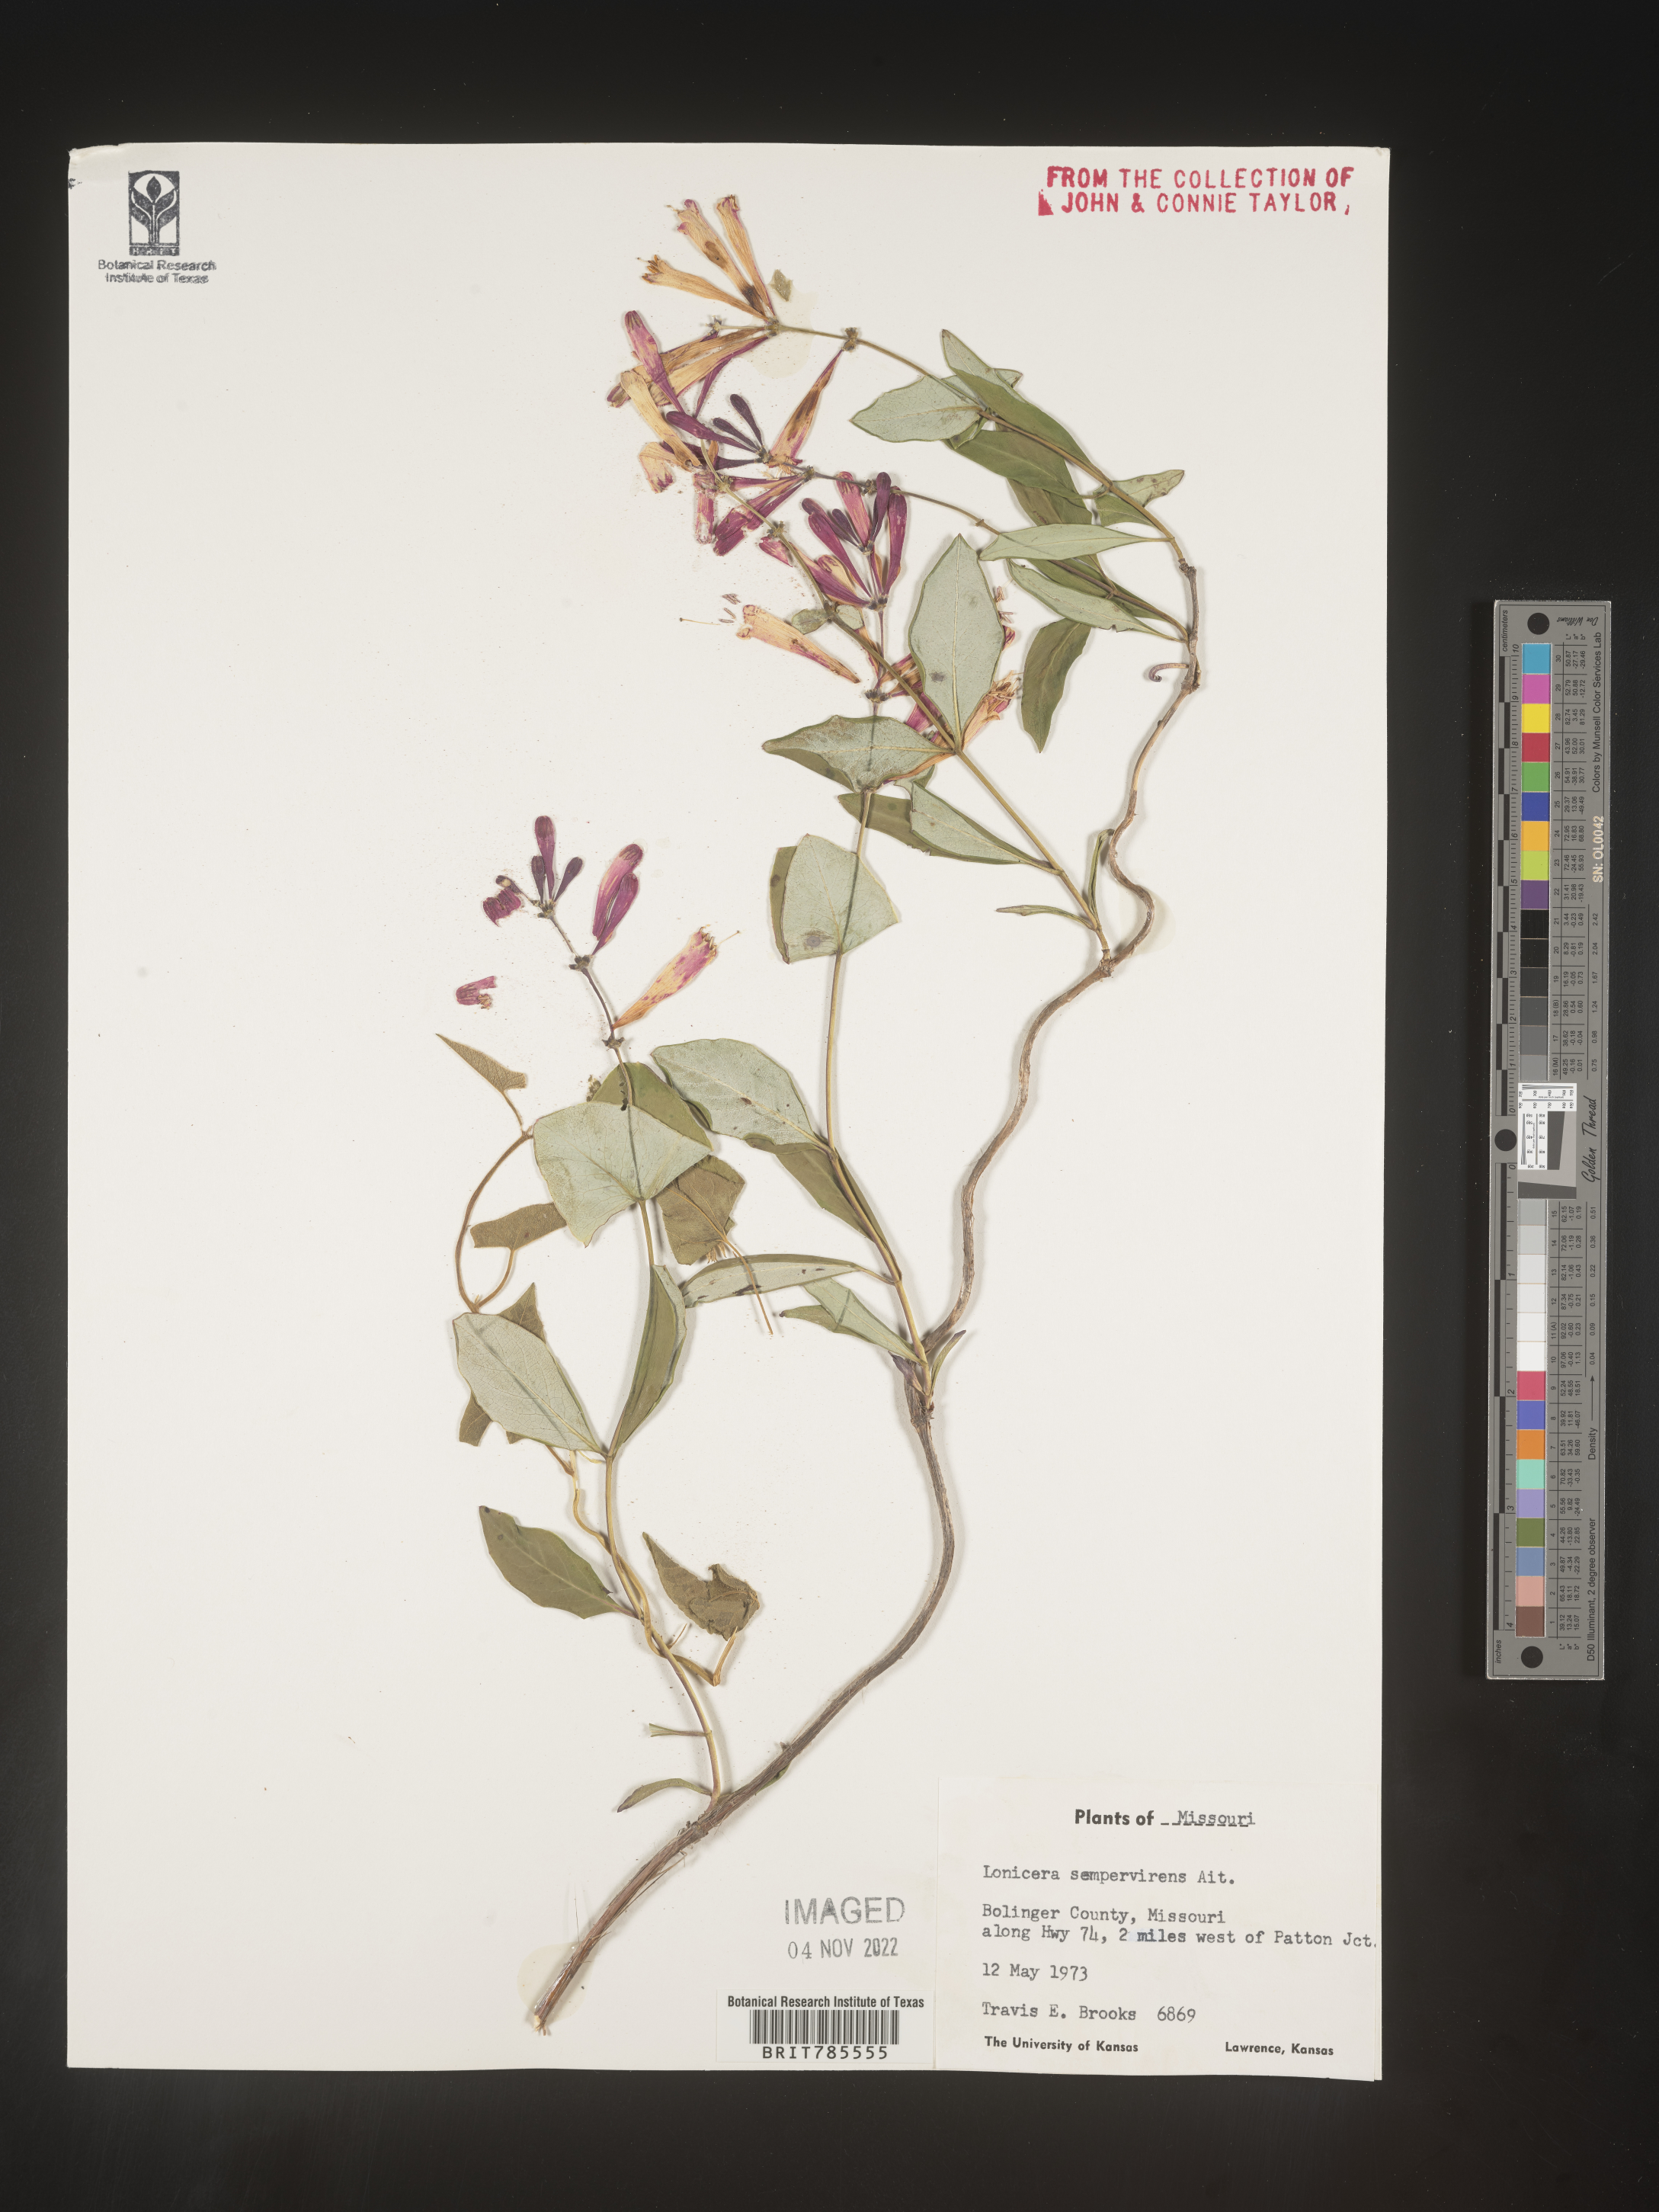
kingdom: Plantae
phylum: Tracheophyta
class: Magnoliopsida
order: Dipsacales
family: Caprifoliaceae
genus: Lonicera
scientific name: Lonicera sempervirens
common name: Coral honeysuckle
